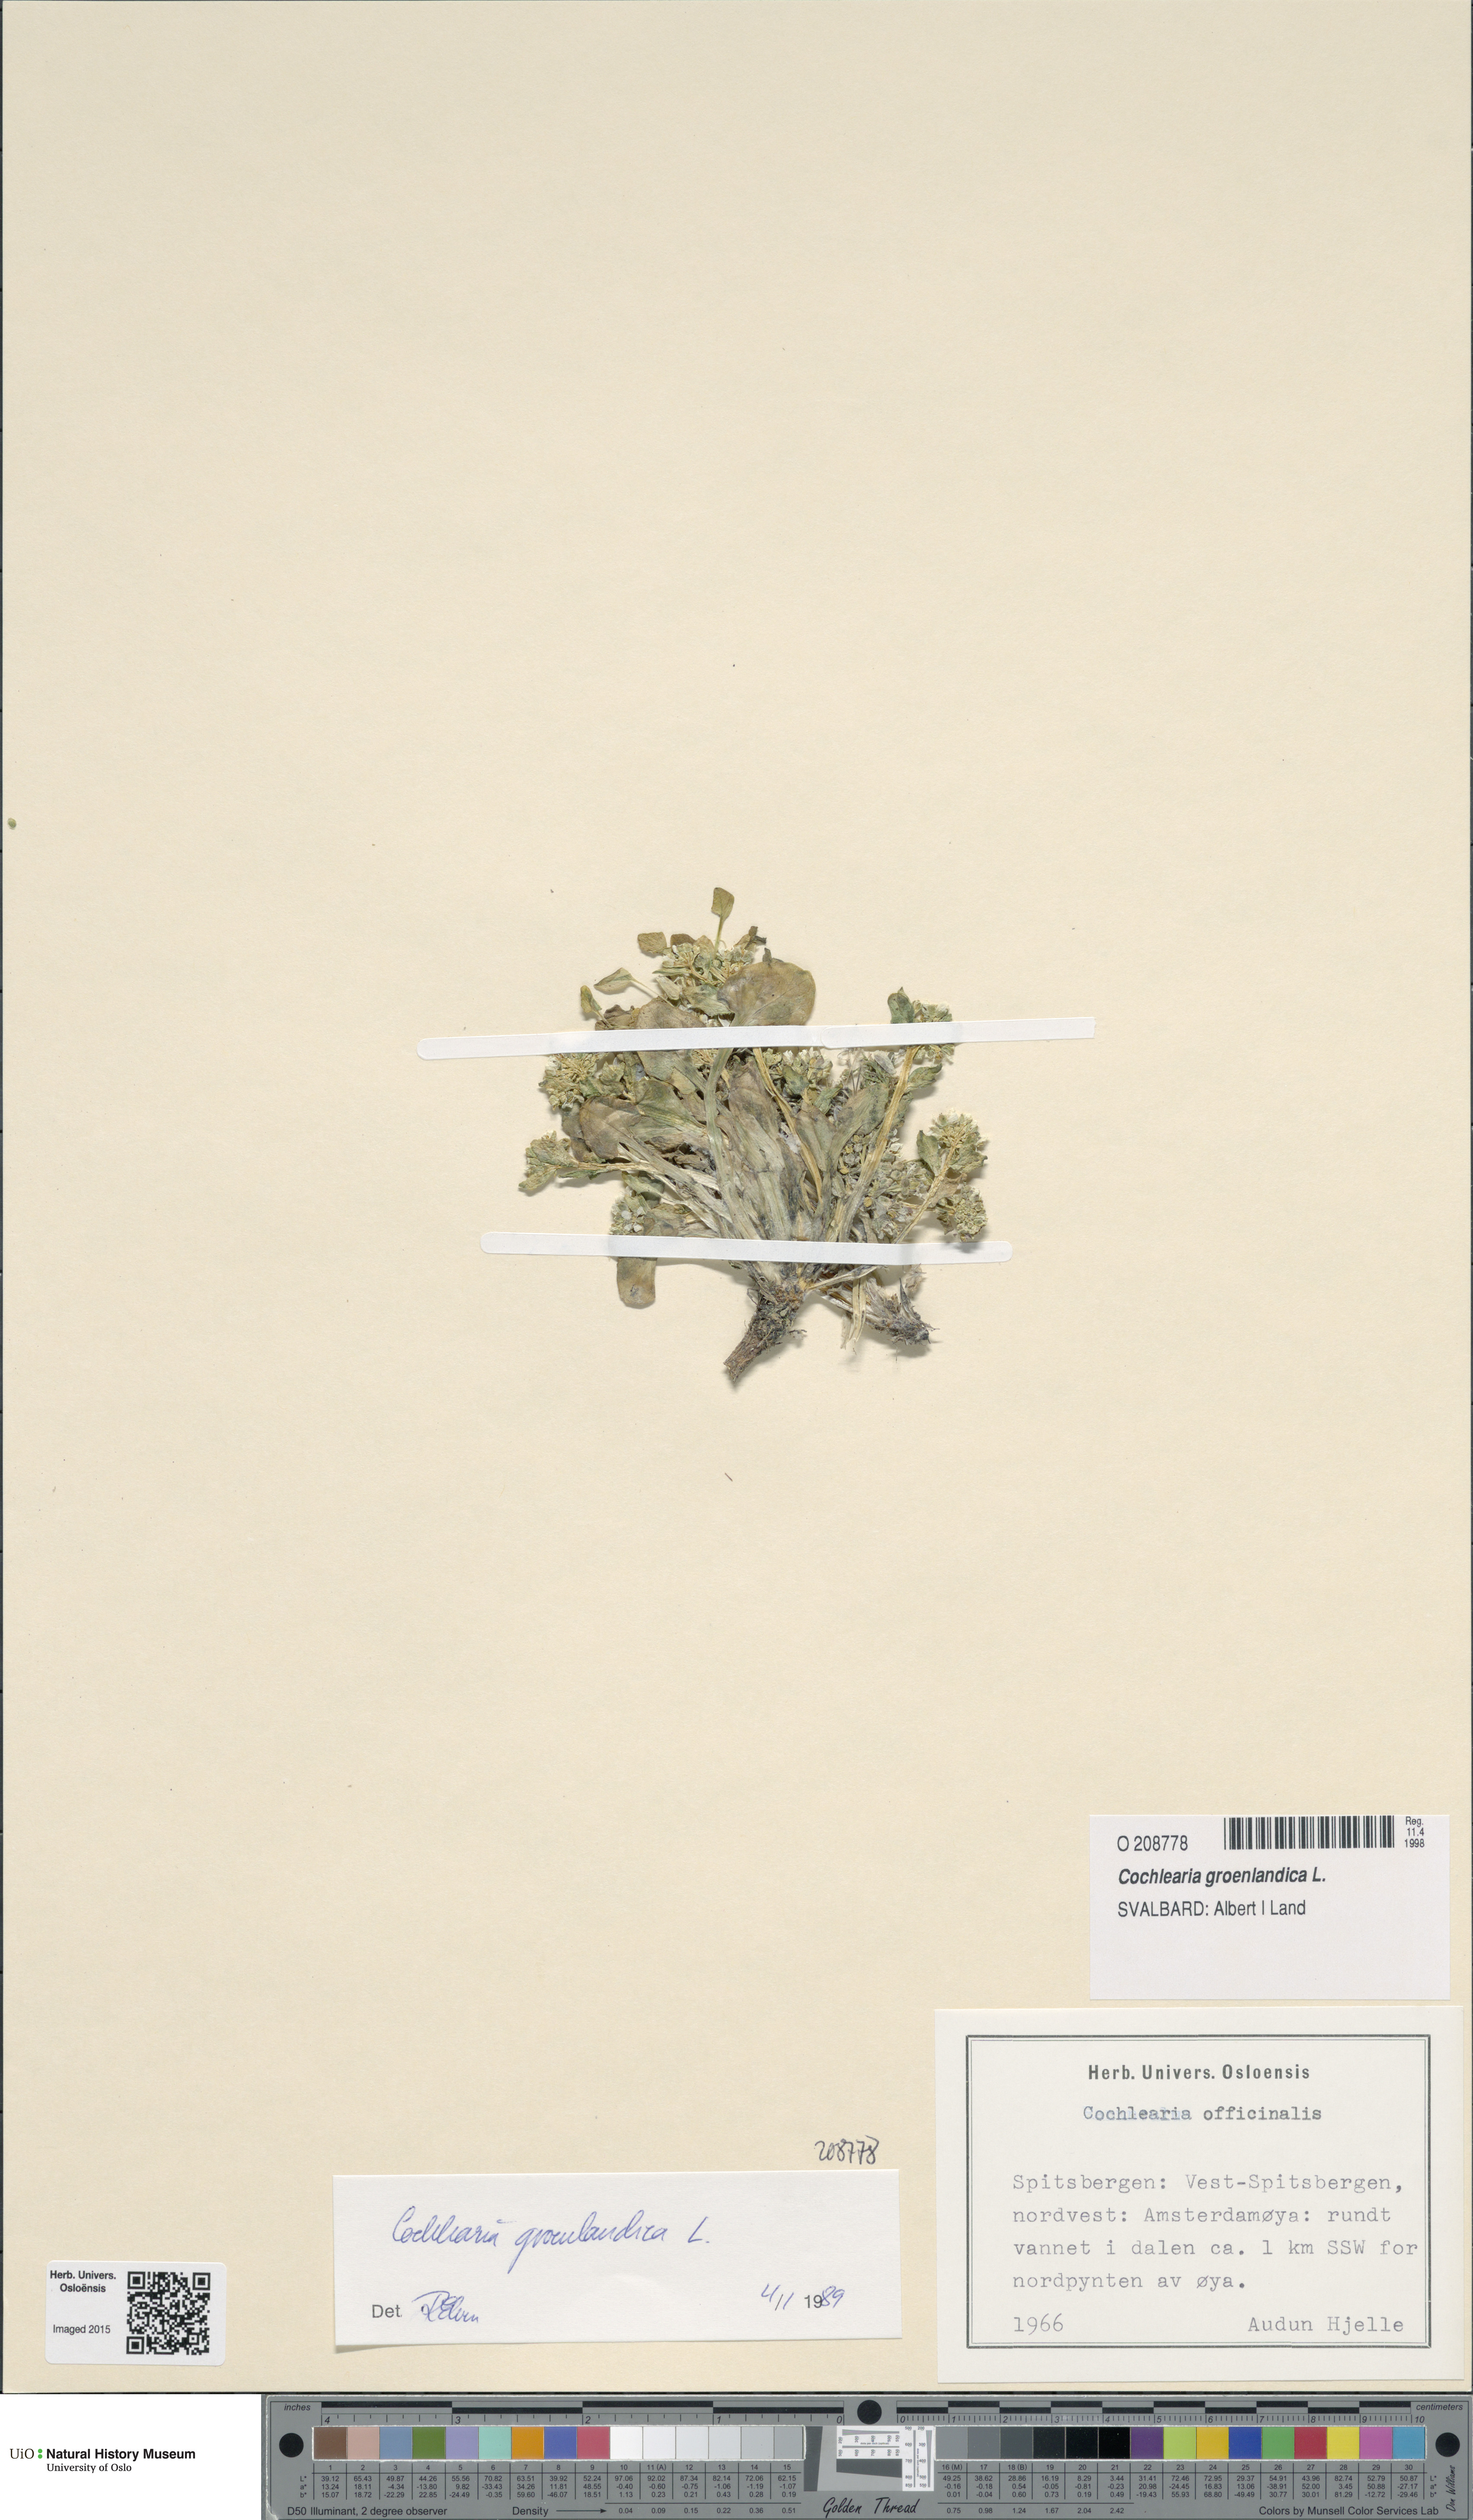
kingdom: Plantae
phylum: Tracheophyta
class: Magnoliopsida
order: Brassicales
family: Brassicaceae
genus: Cochlearia
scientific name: Cochlearia groenlandica
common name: Danish scurvygrass
